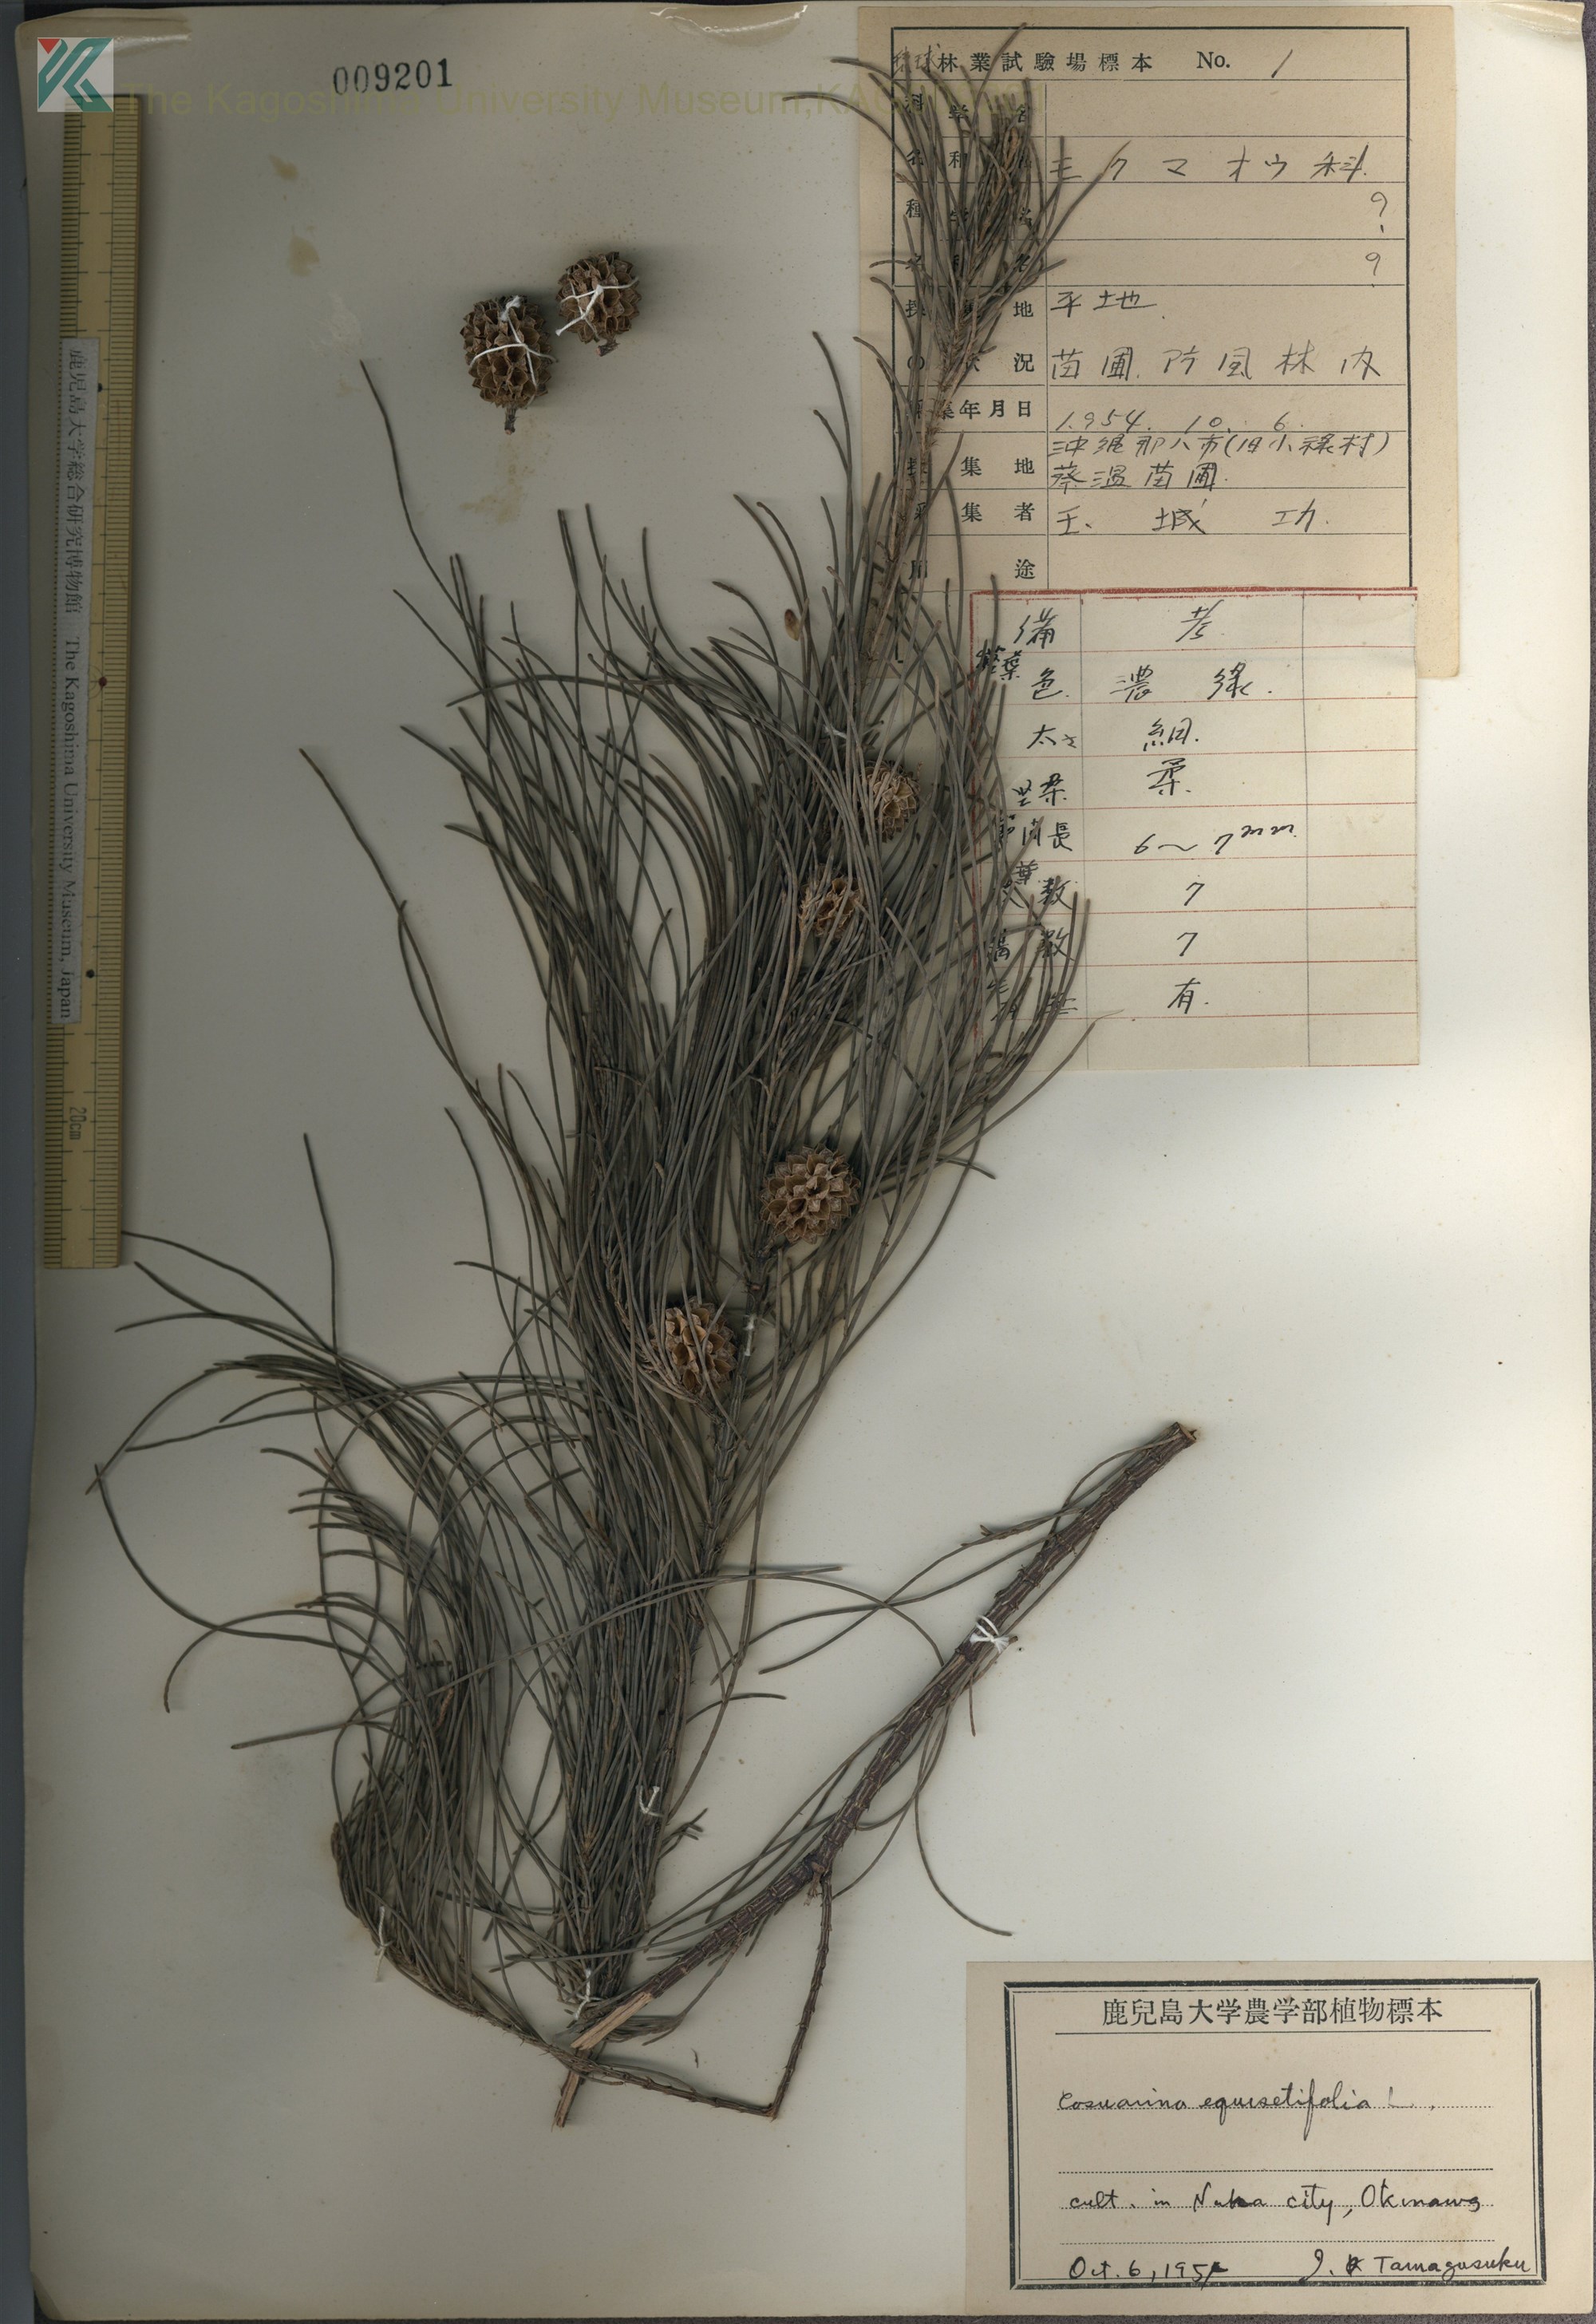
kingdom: Plantae
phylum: Tracheophyta
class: Magnoliopsida
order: Fagales
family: Casuarinaceae
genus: Casuarina
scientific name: Casuarina equisetifolia
